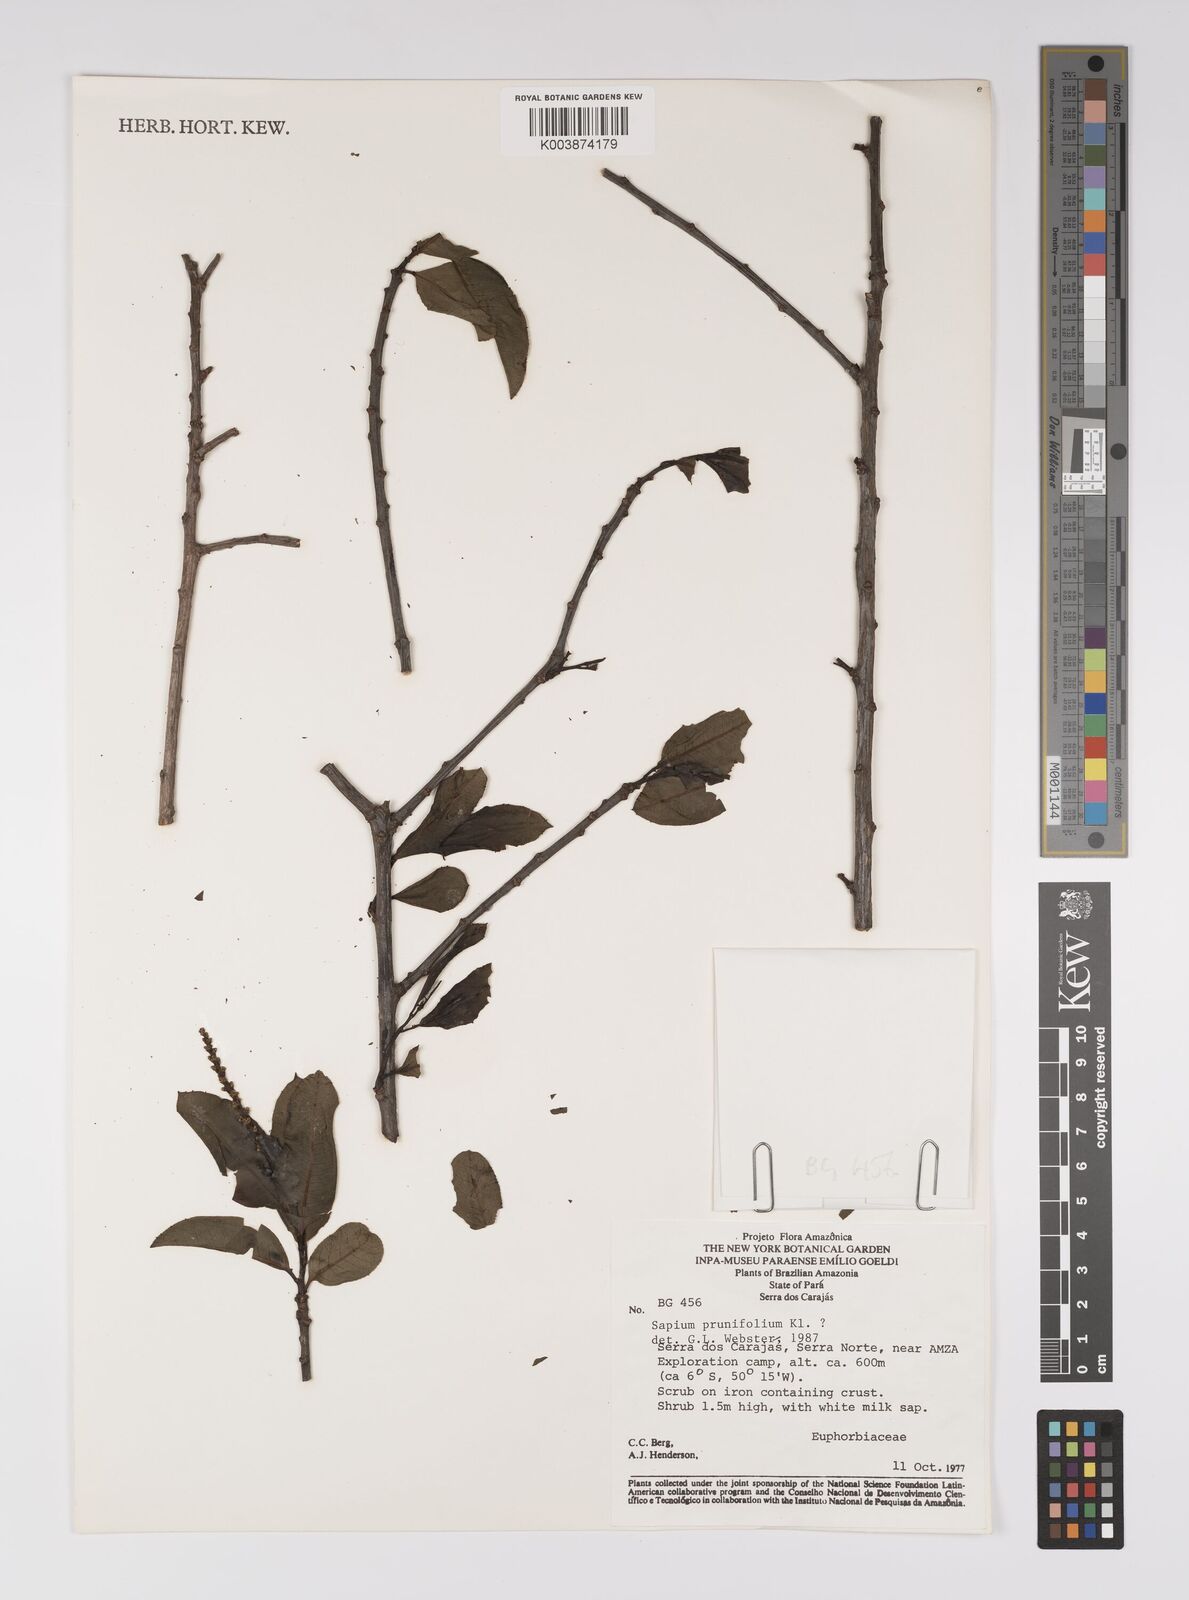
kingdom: Plantae
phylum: Tracheophyta
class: Magnoliopsida
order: Malpighiales
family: Euphorbiaceae
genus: Sapium
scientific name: Sapium glandulosum
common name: Milktree
